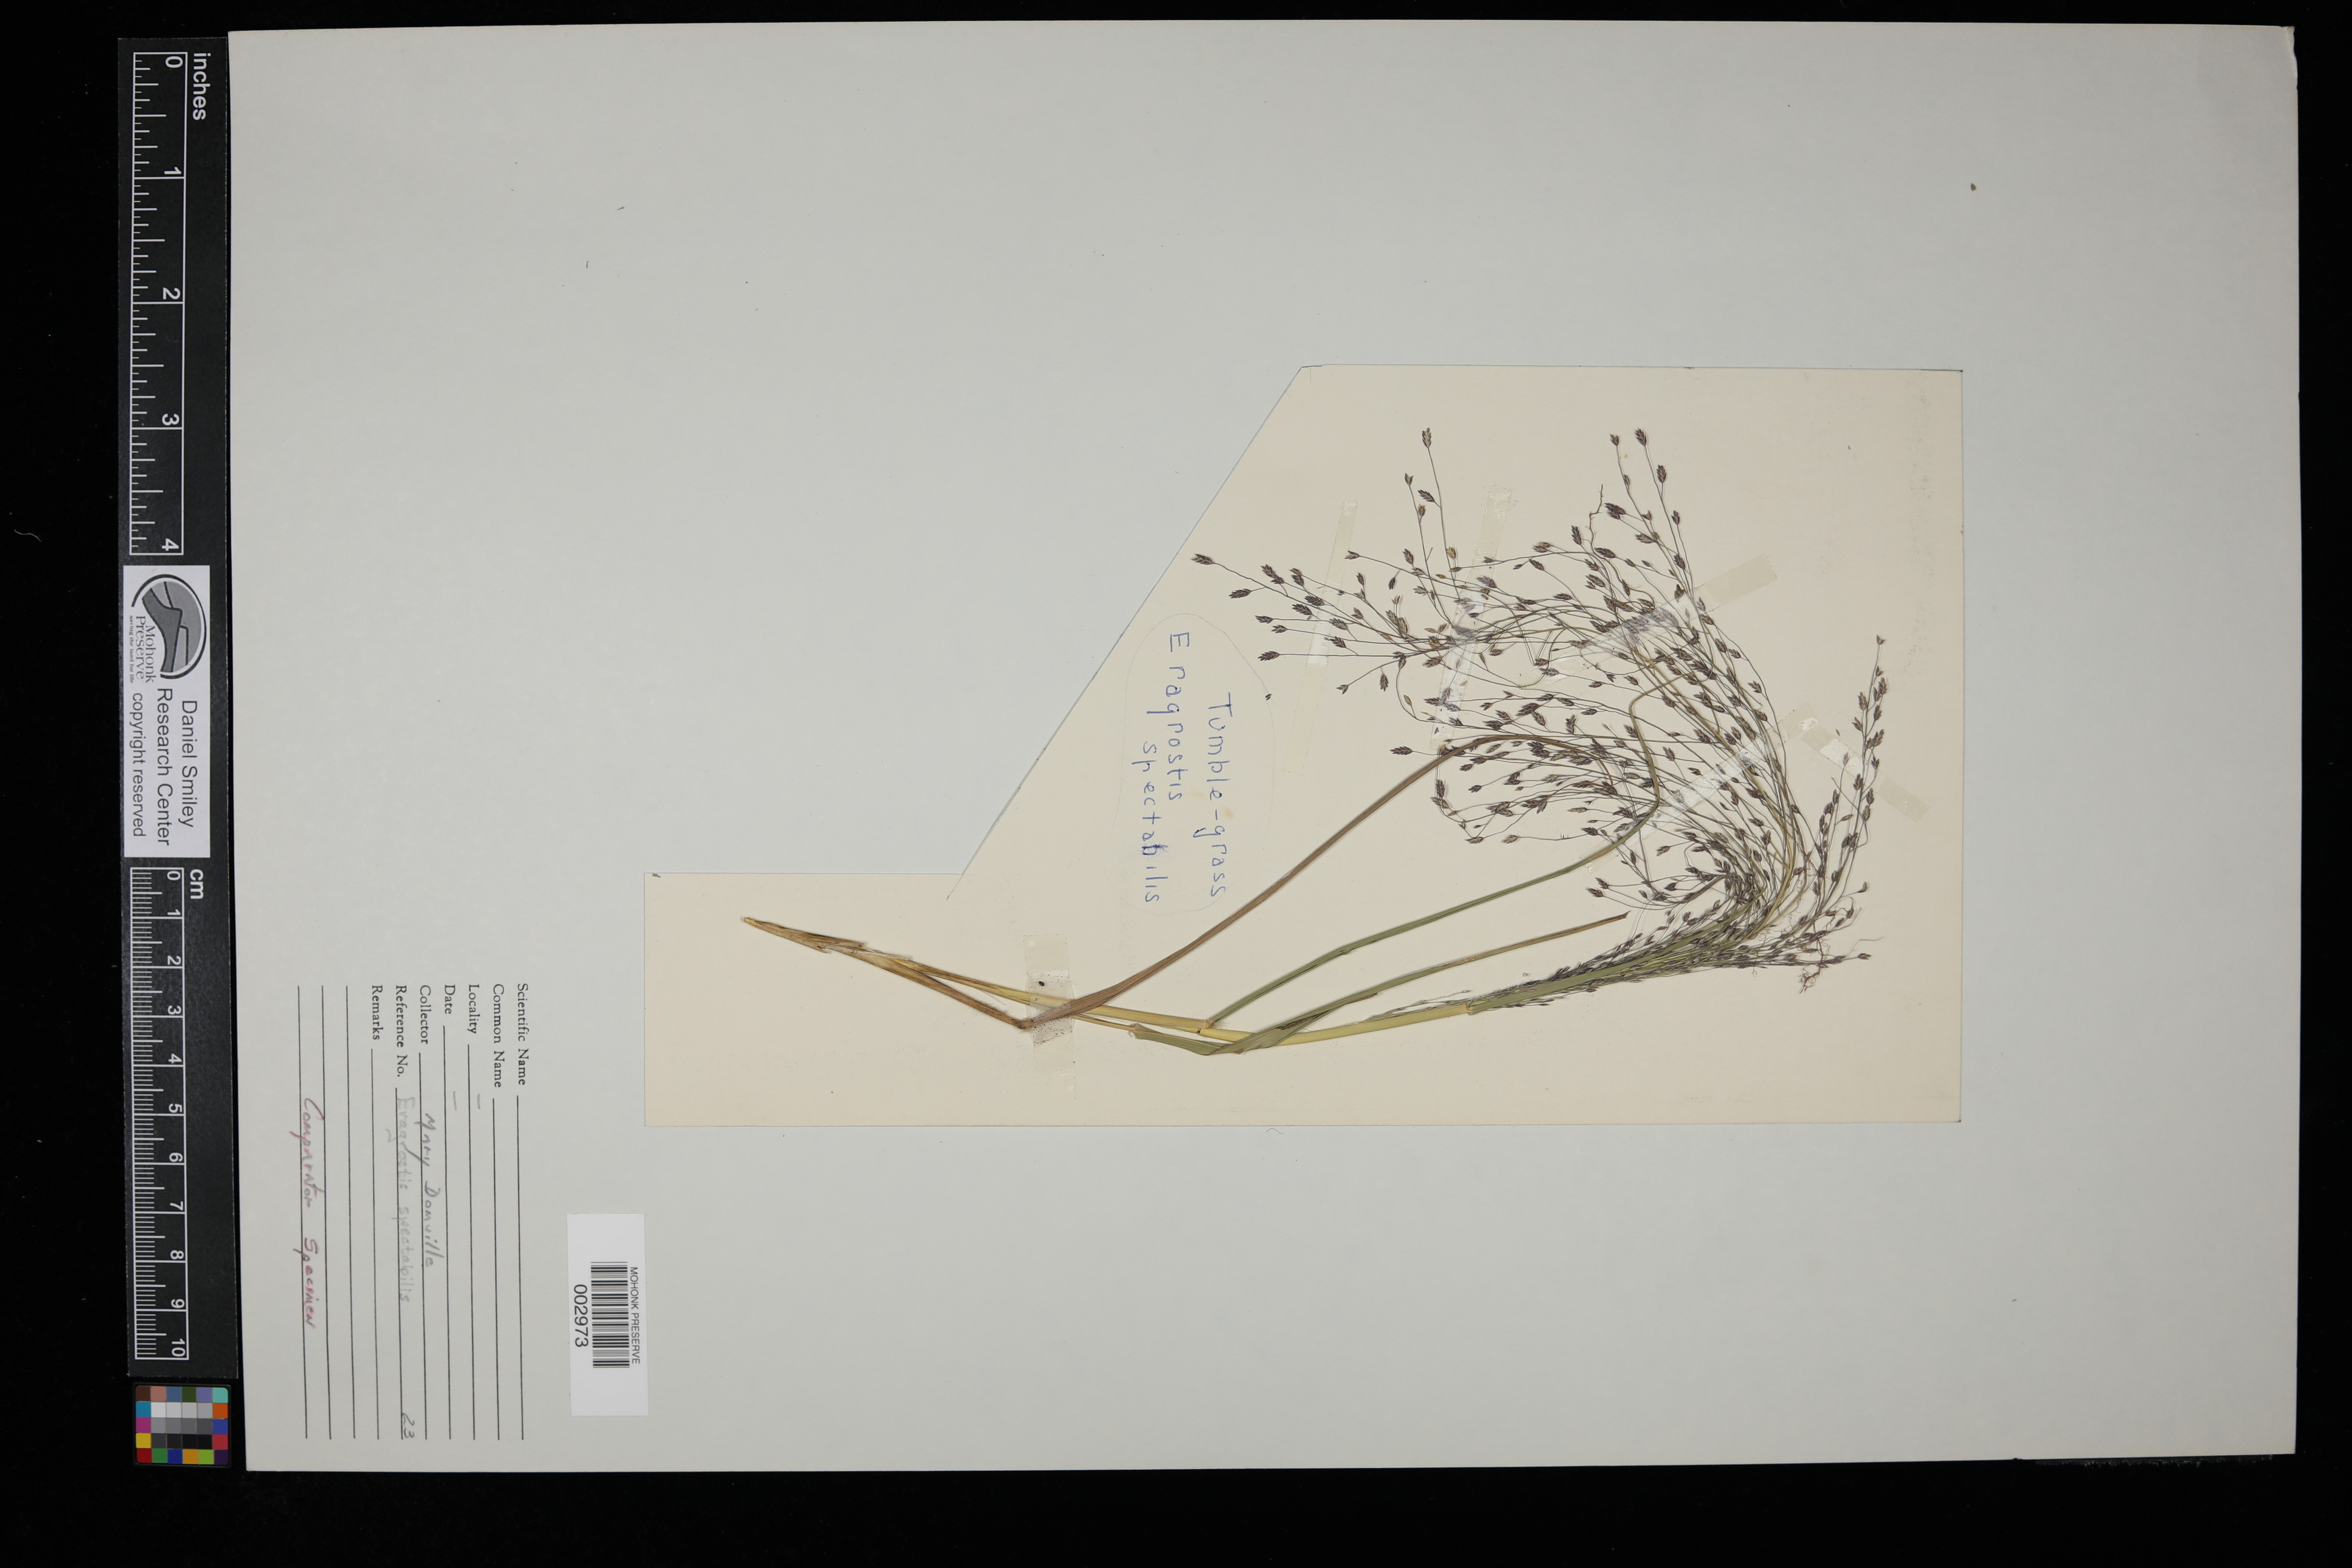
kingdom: Plantae
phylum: Tracheophyta
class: Liliopsida
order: Poales
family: Poaceae
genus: Eragrostis
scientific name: Eragrostis spectabilis
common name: Petticoat-climber
